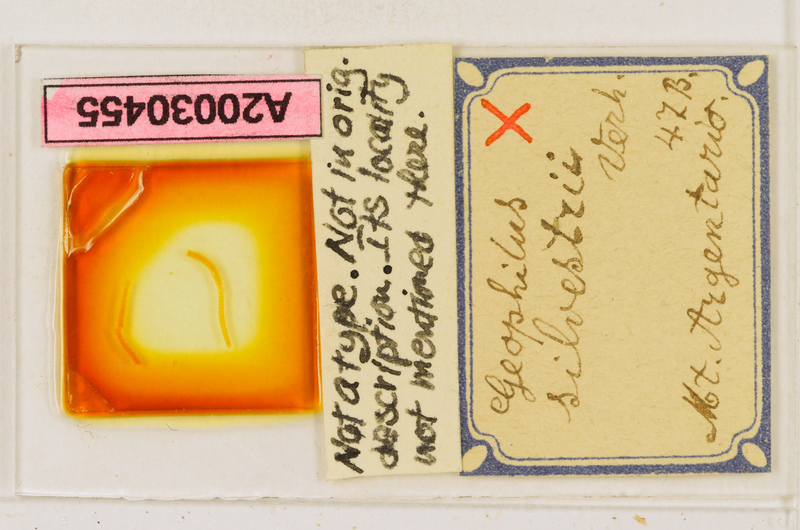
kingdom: Animalia
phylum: Arthropoda
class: Chilopoda
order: Geophilomorpha
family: Geophilidae
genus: Stenotaenia
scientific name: Stenotaenia romana
